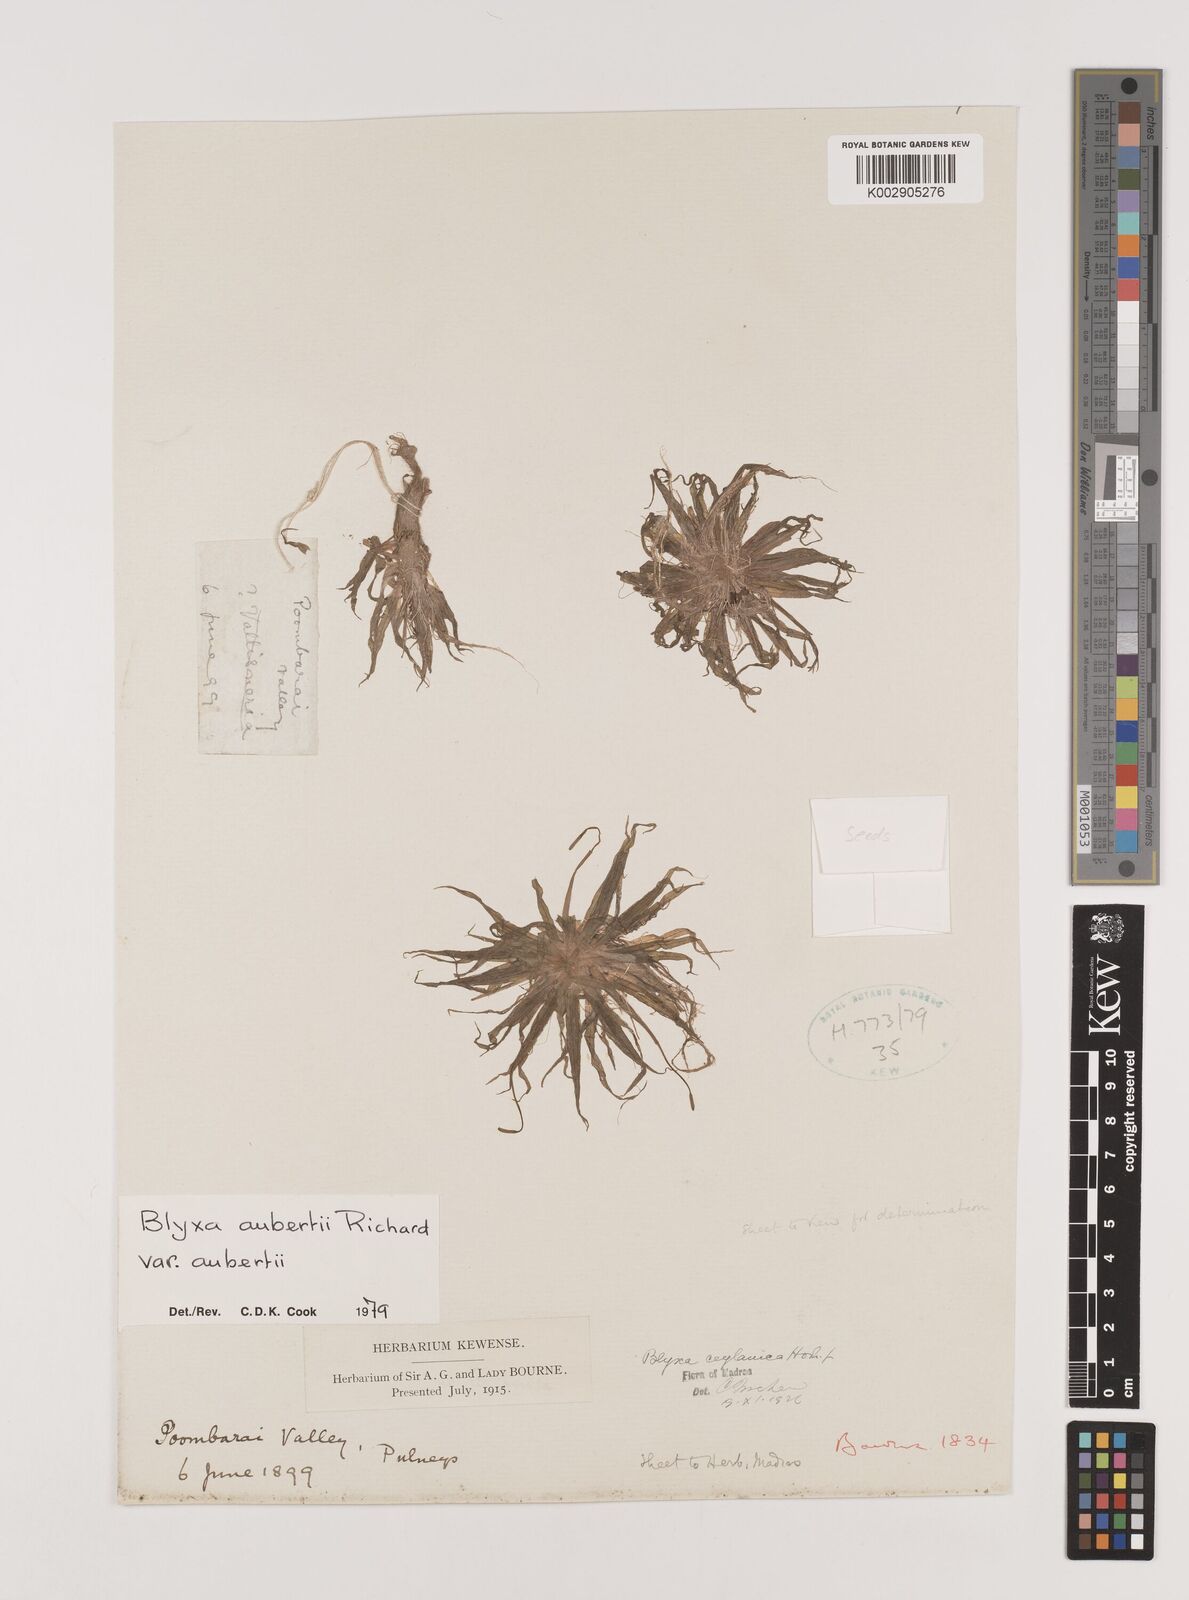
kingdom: Plantae
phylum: Tracheophyta
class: Liliopsida
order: Alismatales
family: Hydrocharitaceae
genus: Blyxa
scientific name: Blyxa aubertii
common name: Roundfruit blyxa
